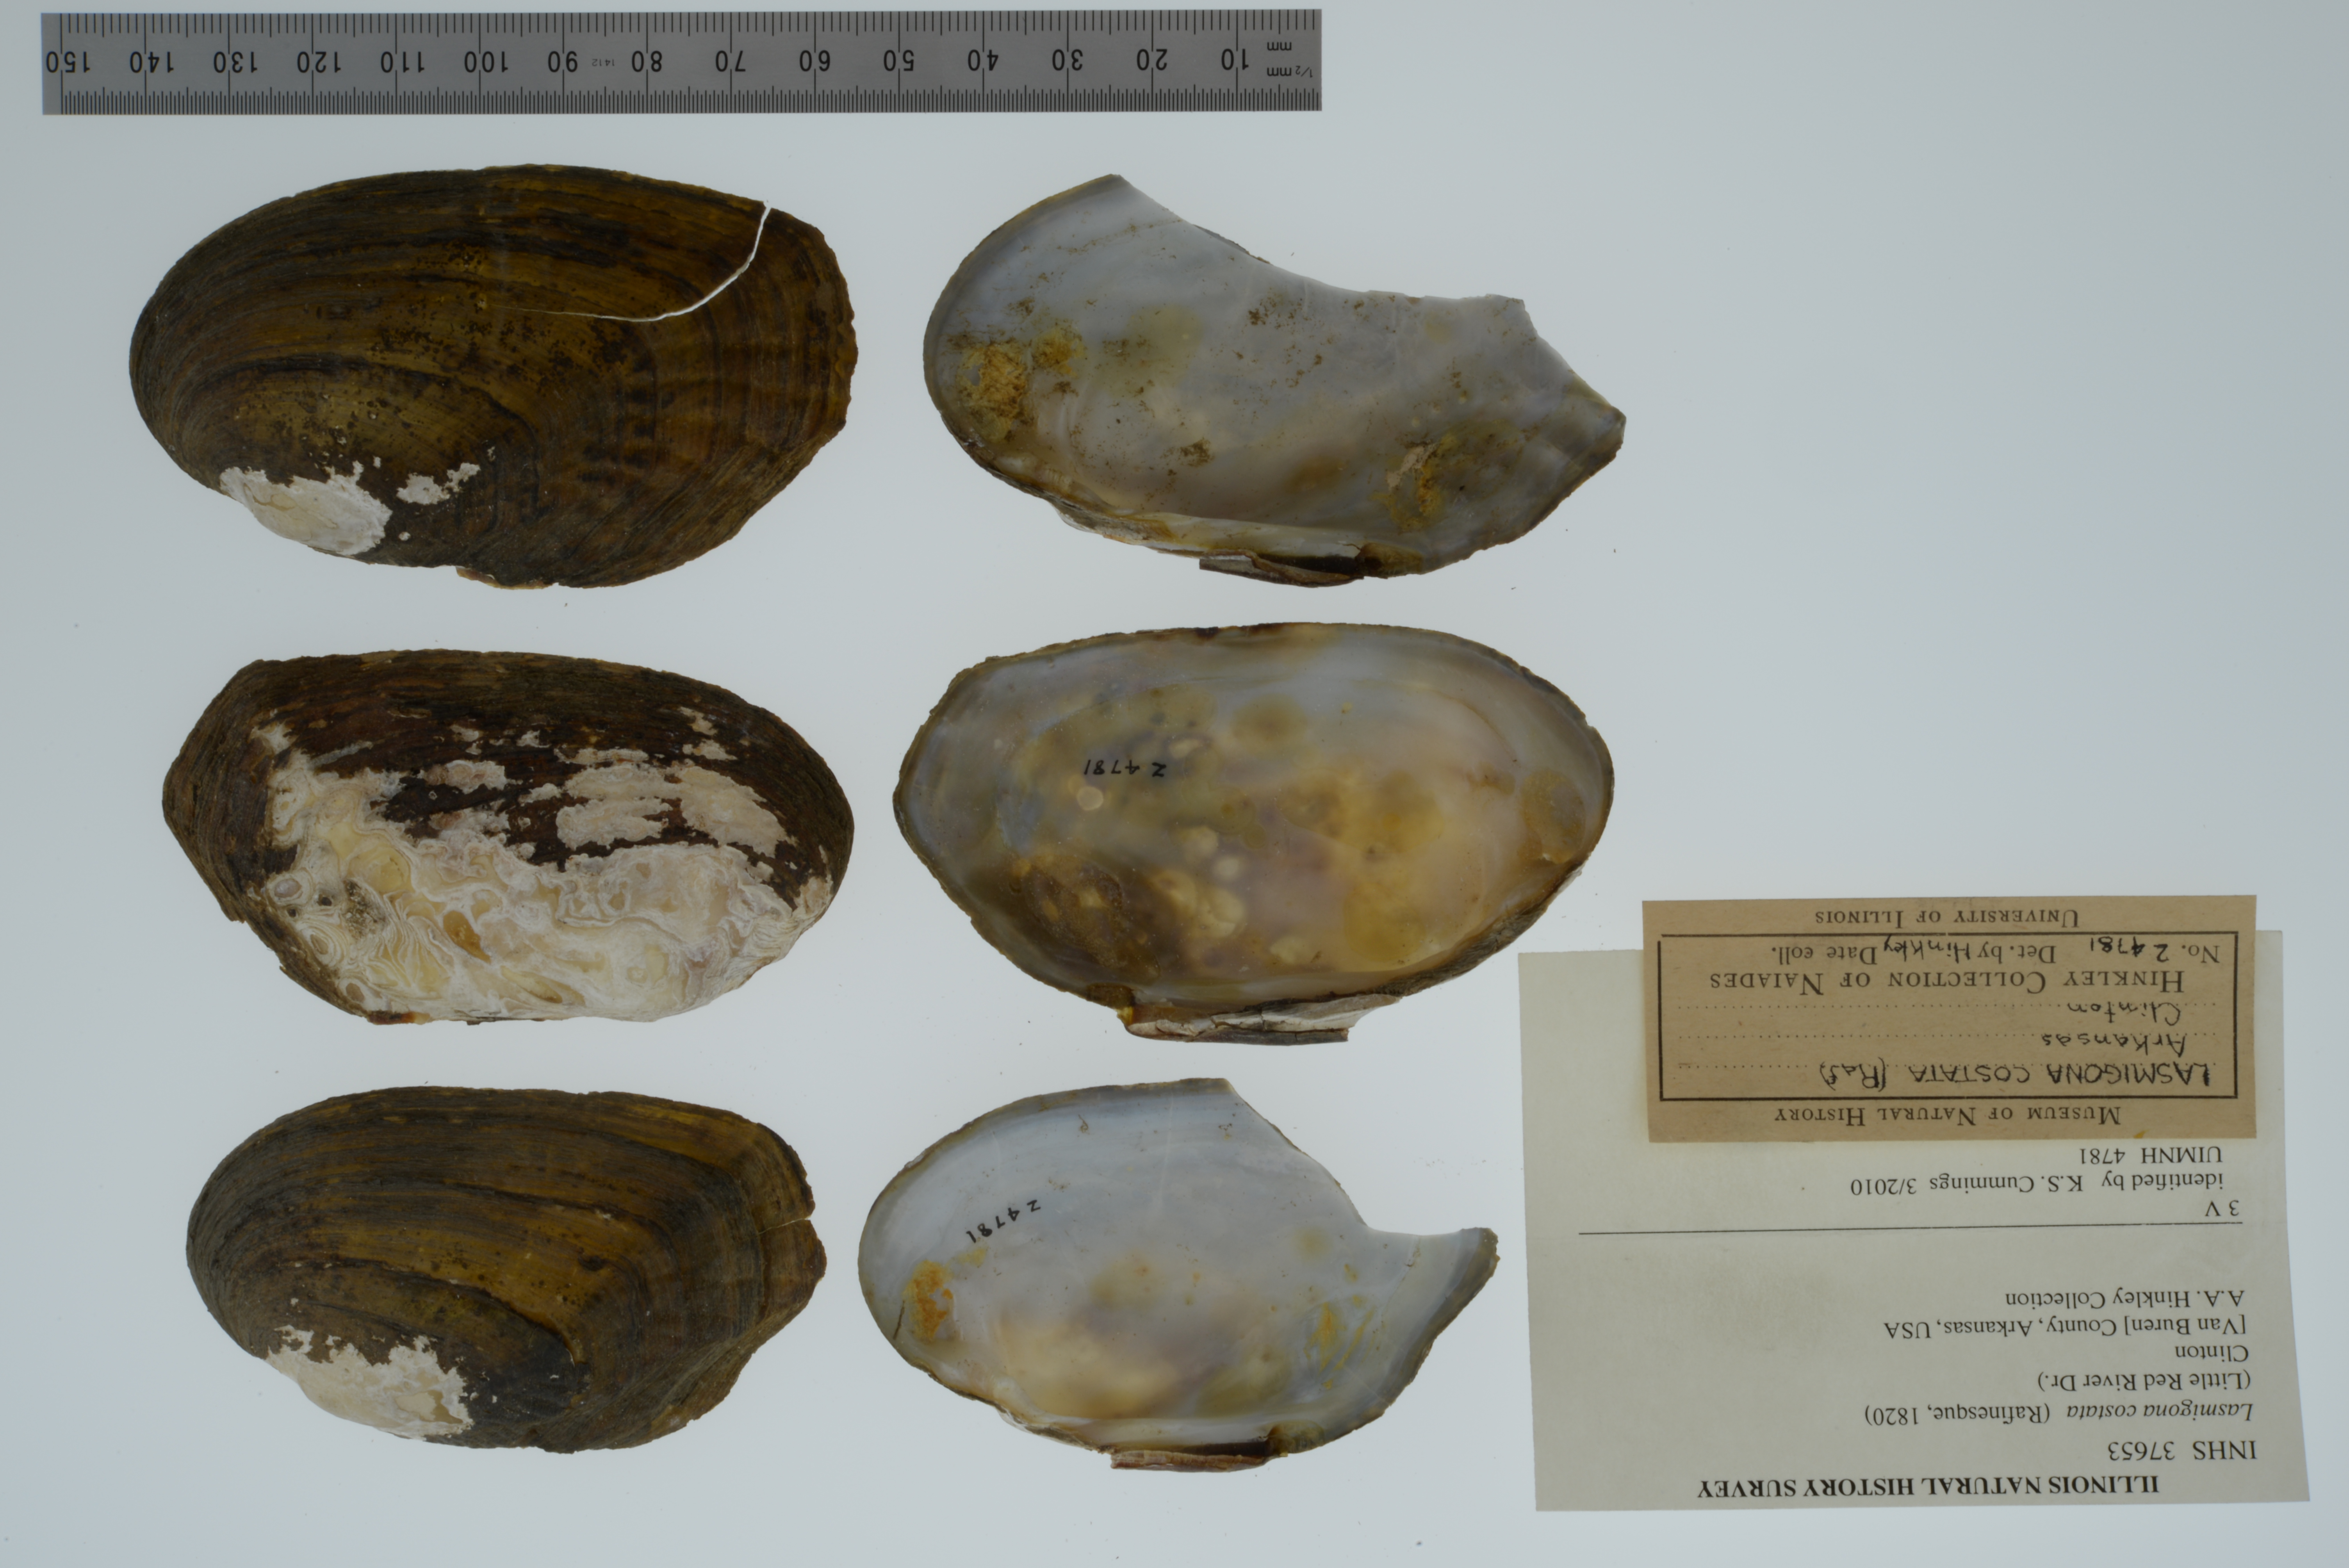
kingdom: Animalia
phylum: Mollusca
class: Bivalvia
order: Unionida
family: Unionidae
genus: Lasmigona
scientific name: Lasmigona costata
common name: Flutedshell
